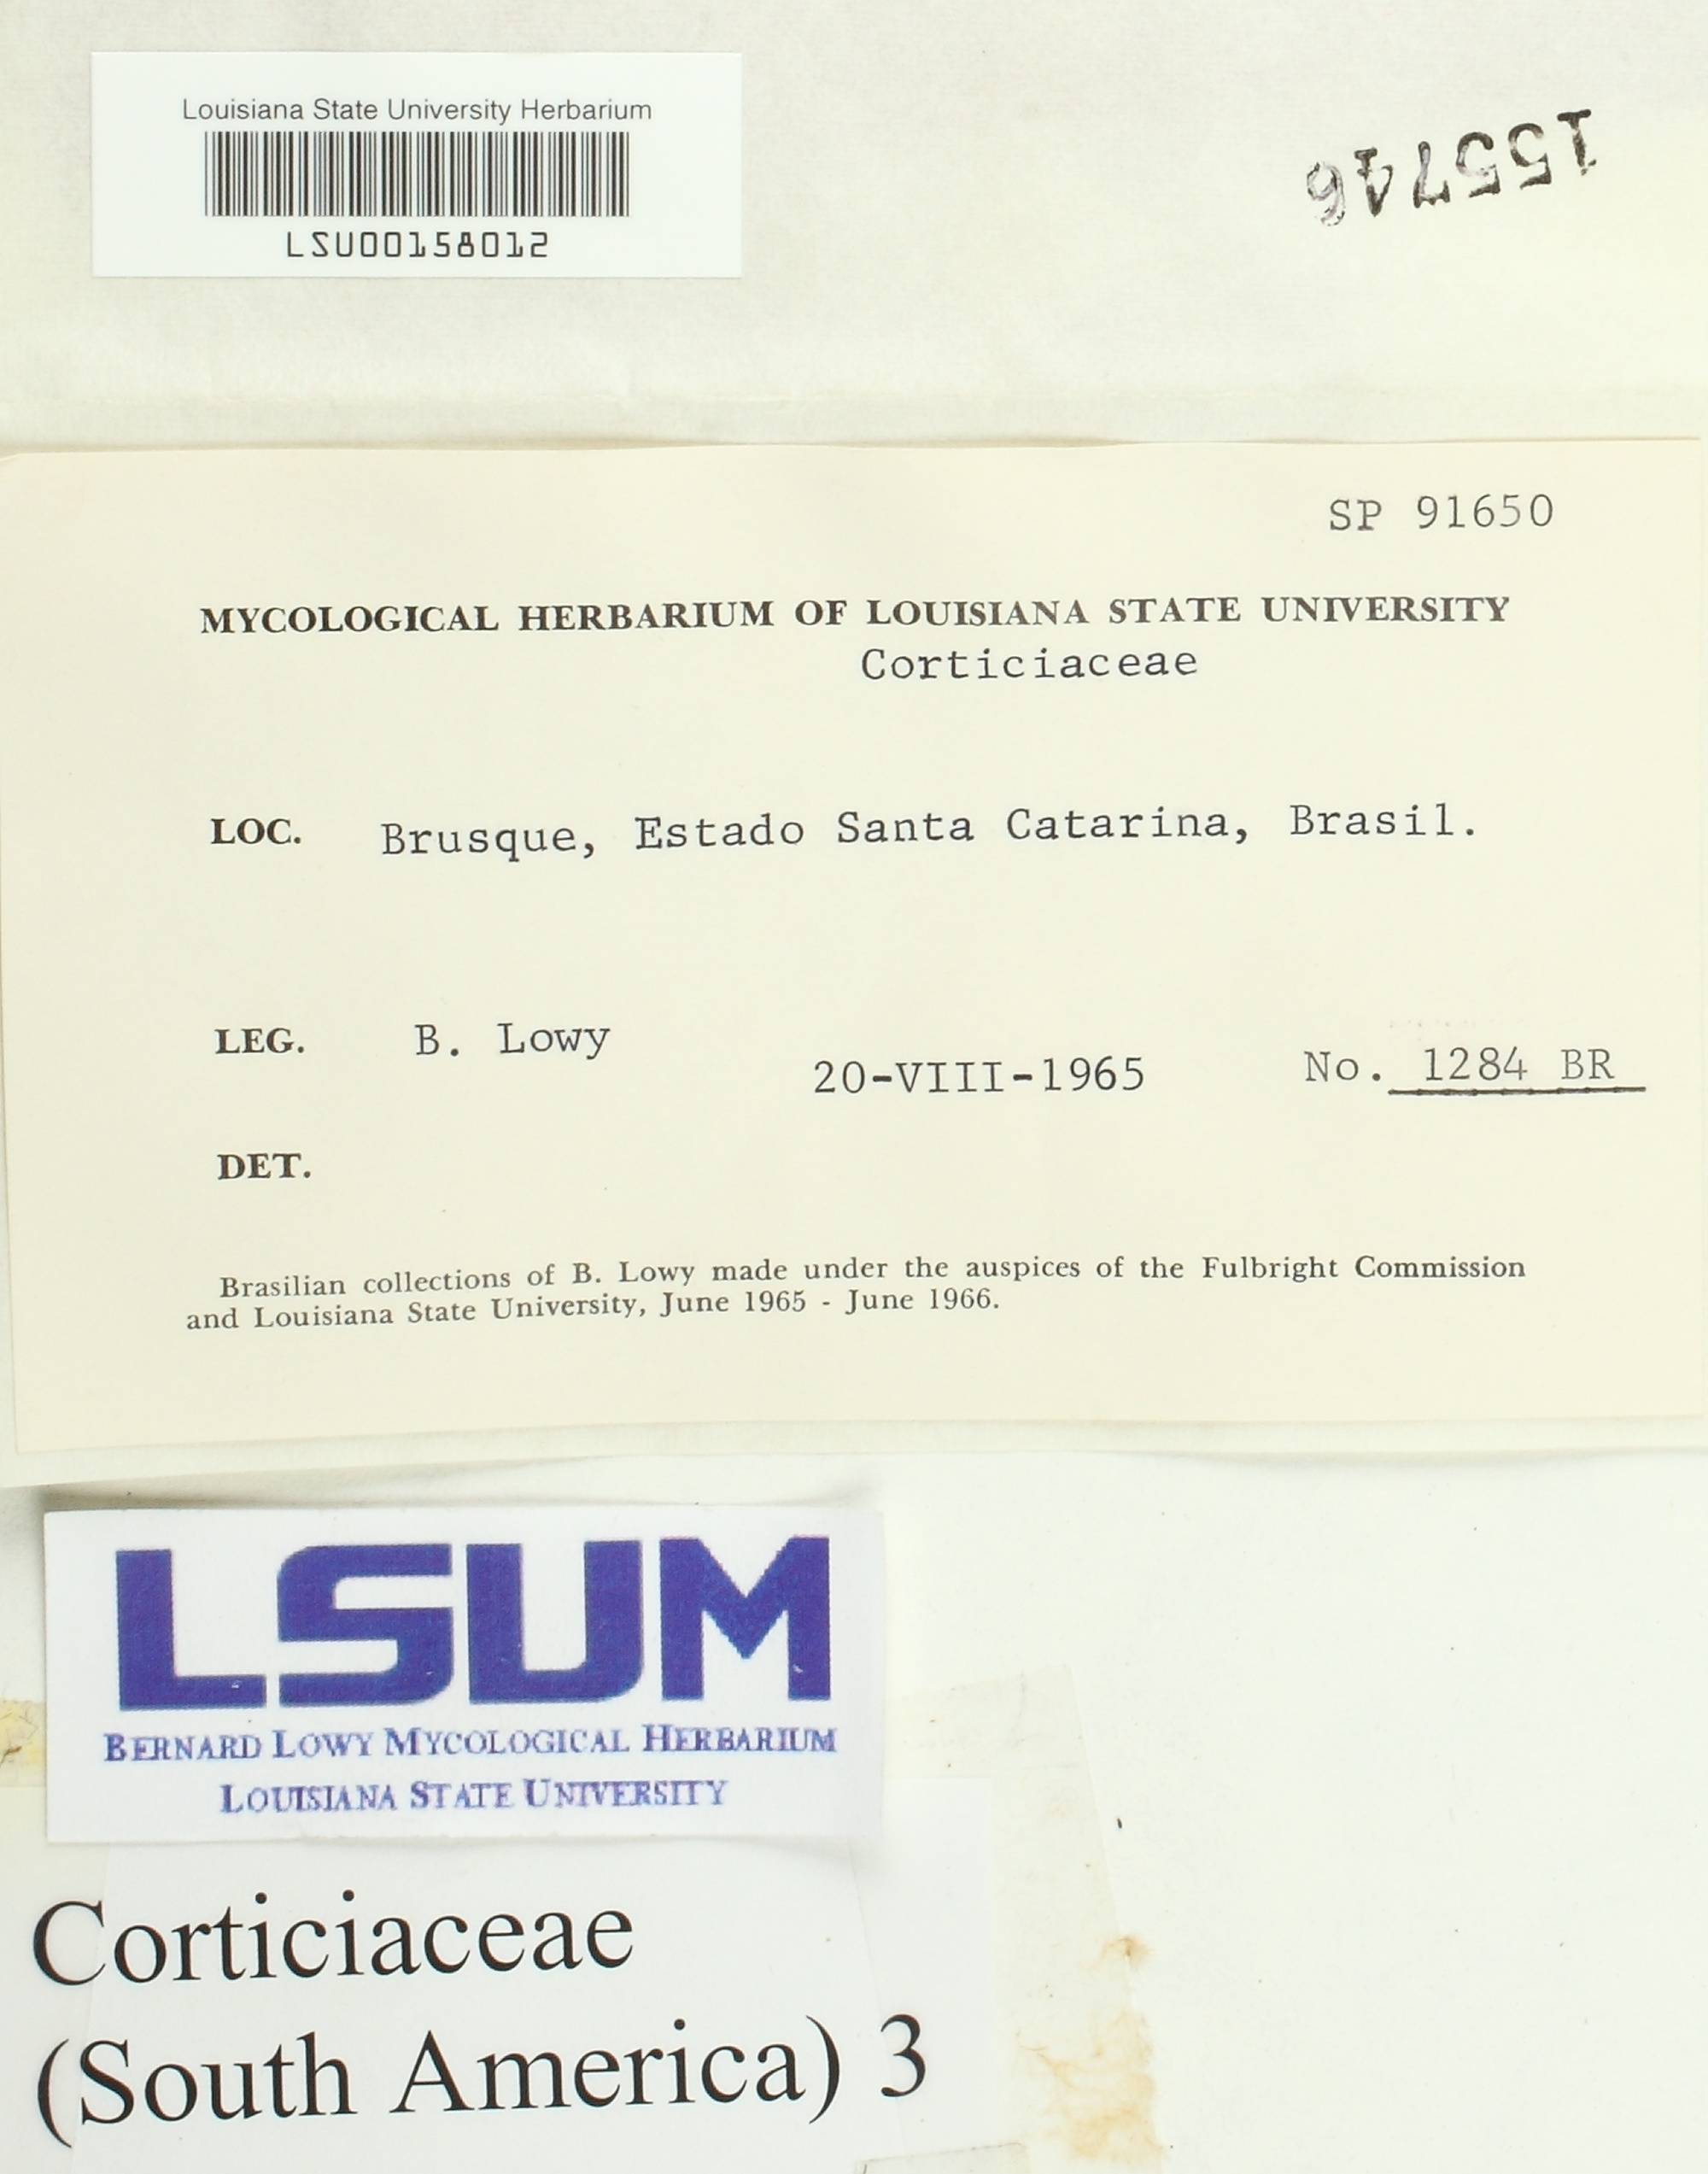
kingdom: Fungi
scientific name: Fungi
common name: Fungi
